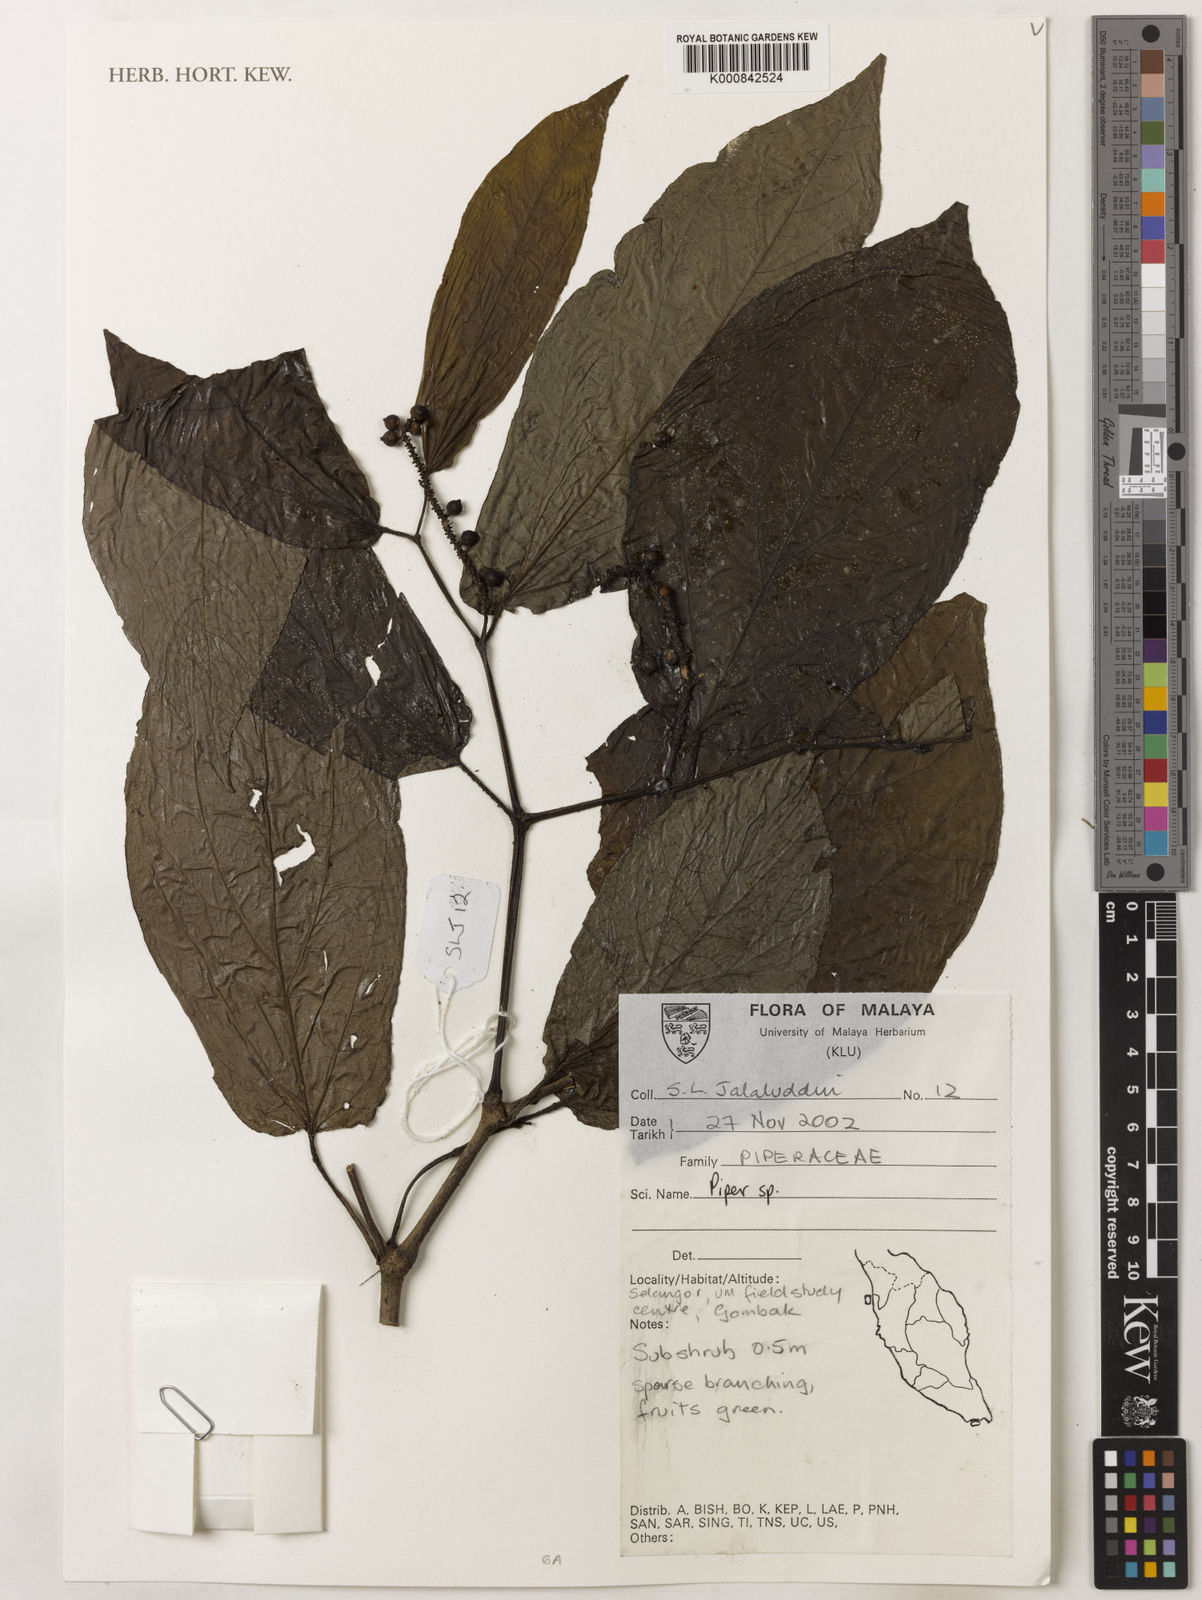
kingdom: Plantae
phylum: Tracheophyta
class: Magnoliopsida
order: Piperales
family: Piperaceae
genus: Piper
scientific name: Piper
